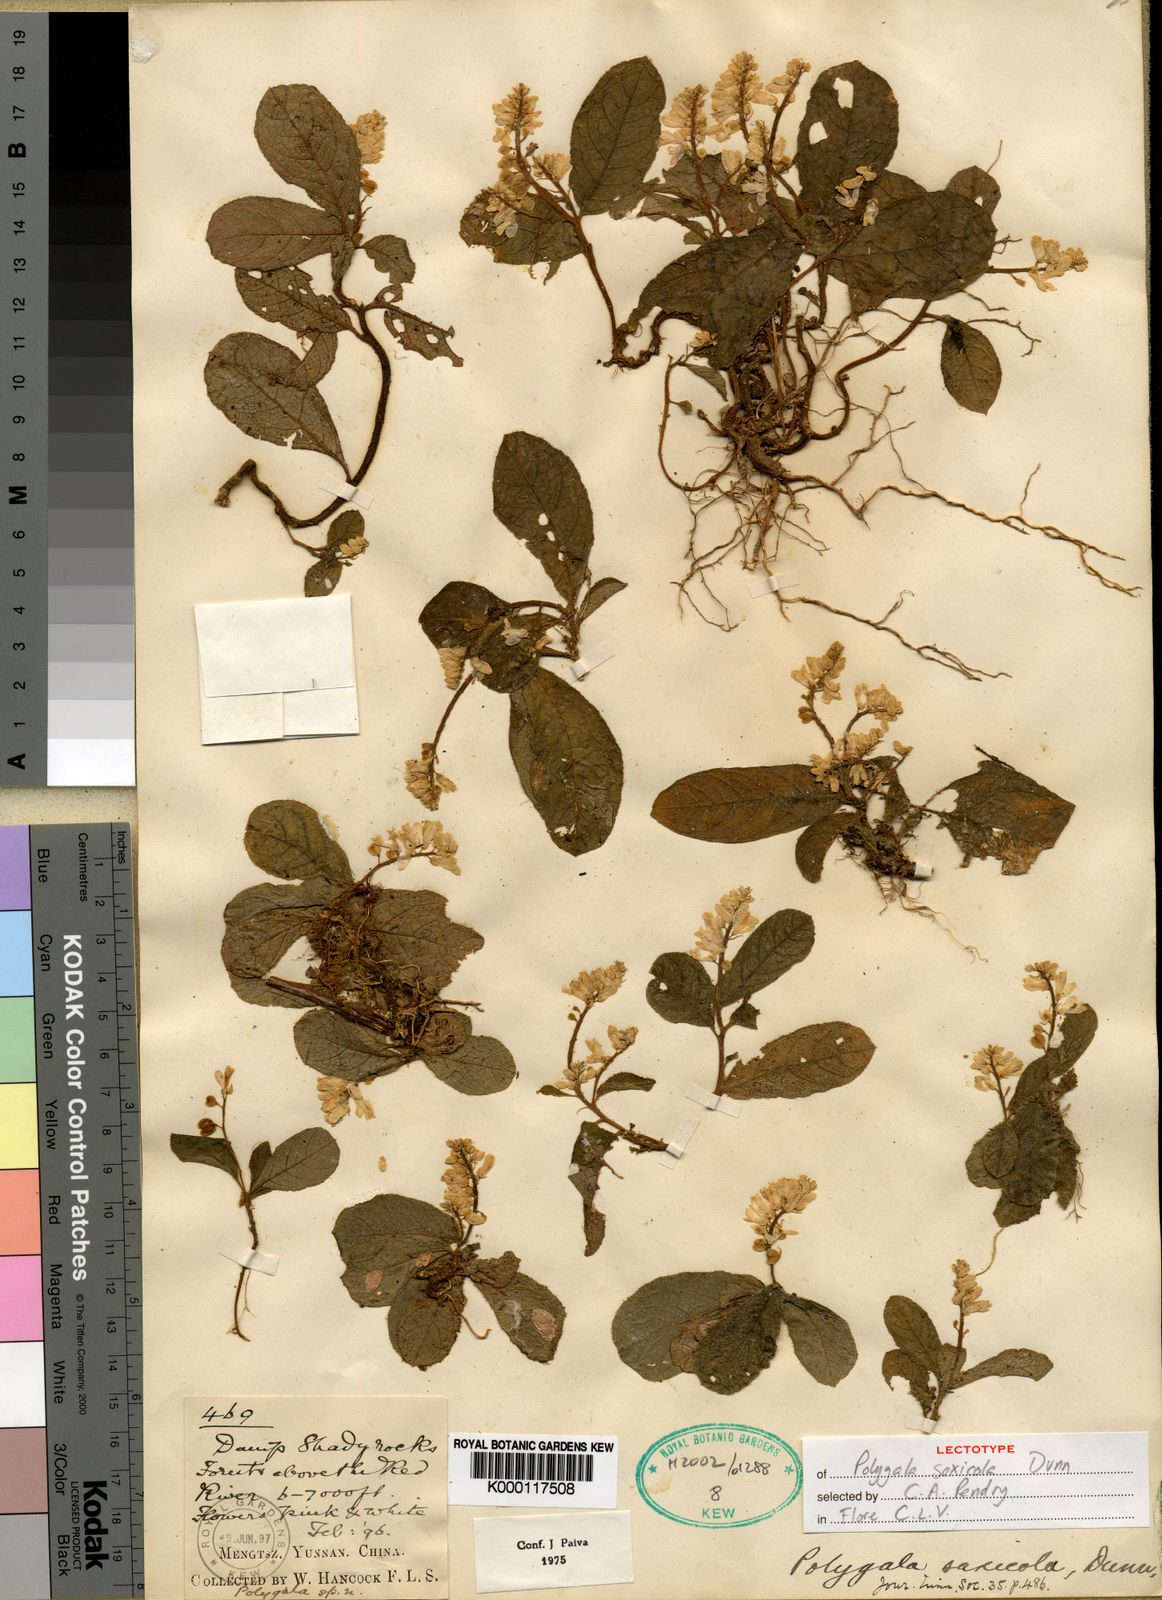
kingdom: Plantae
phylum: Tracheophyta
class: Magnoliopsida
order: Fabales
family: Polygalaceae
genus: Polygala
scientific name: Polygala saxicola
